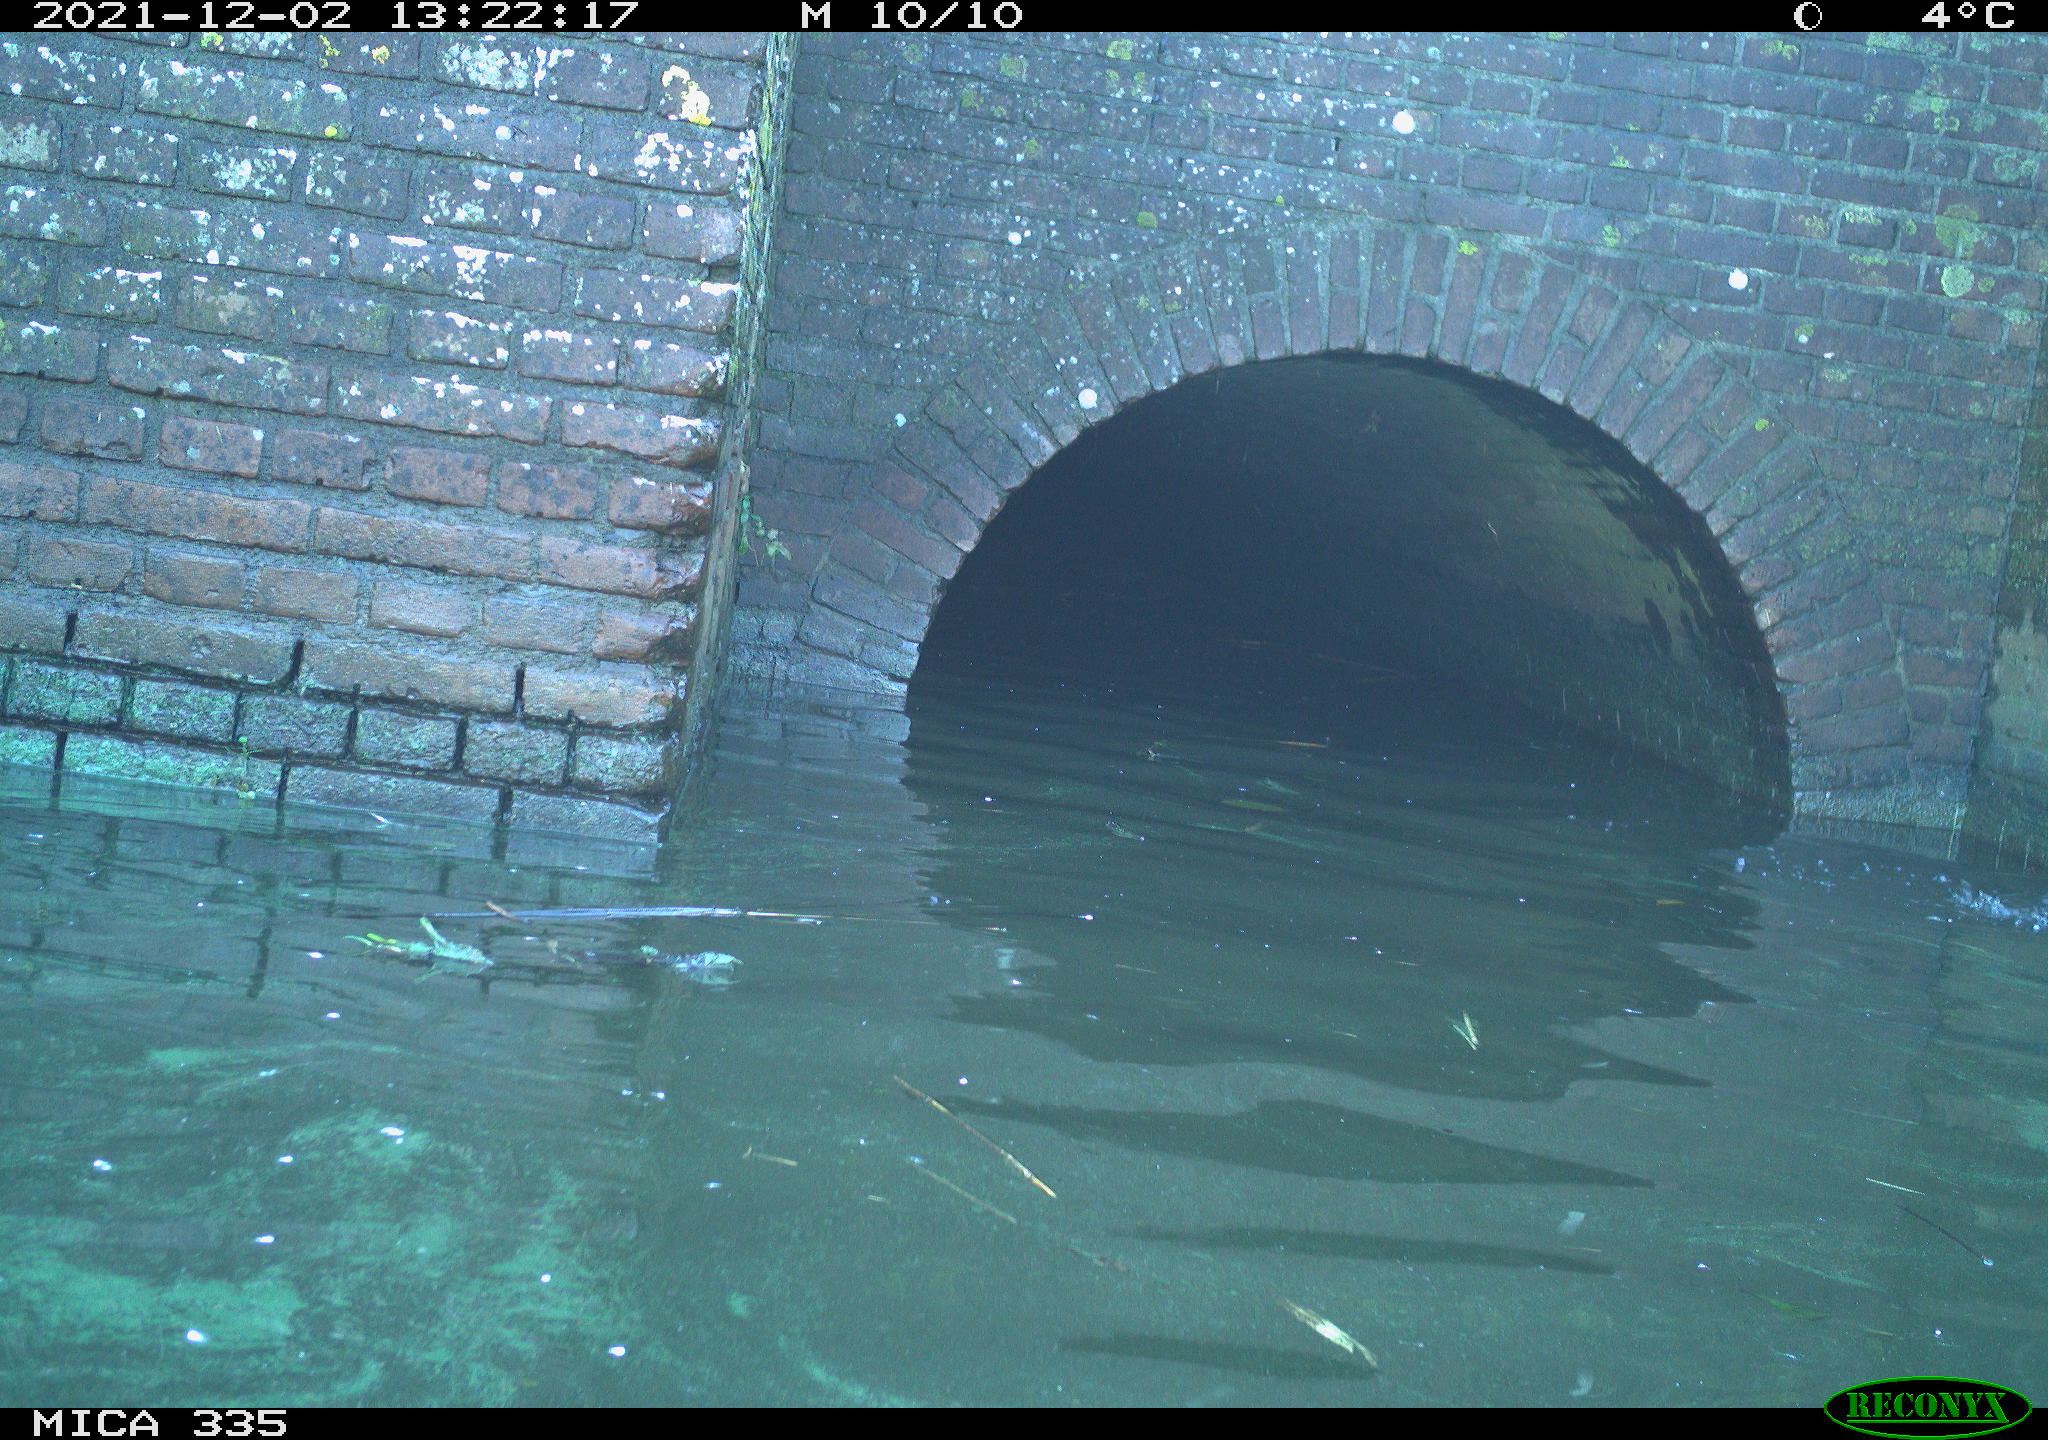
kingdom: Animalia
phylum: Chordata
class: Aves
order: Anseriformes
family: Anatidae
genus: Anas
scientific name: Anas platyrhynchos
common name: Mallard
